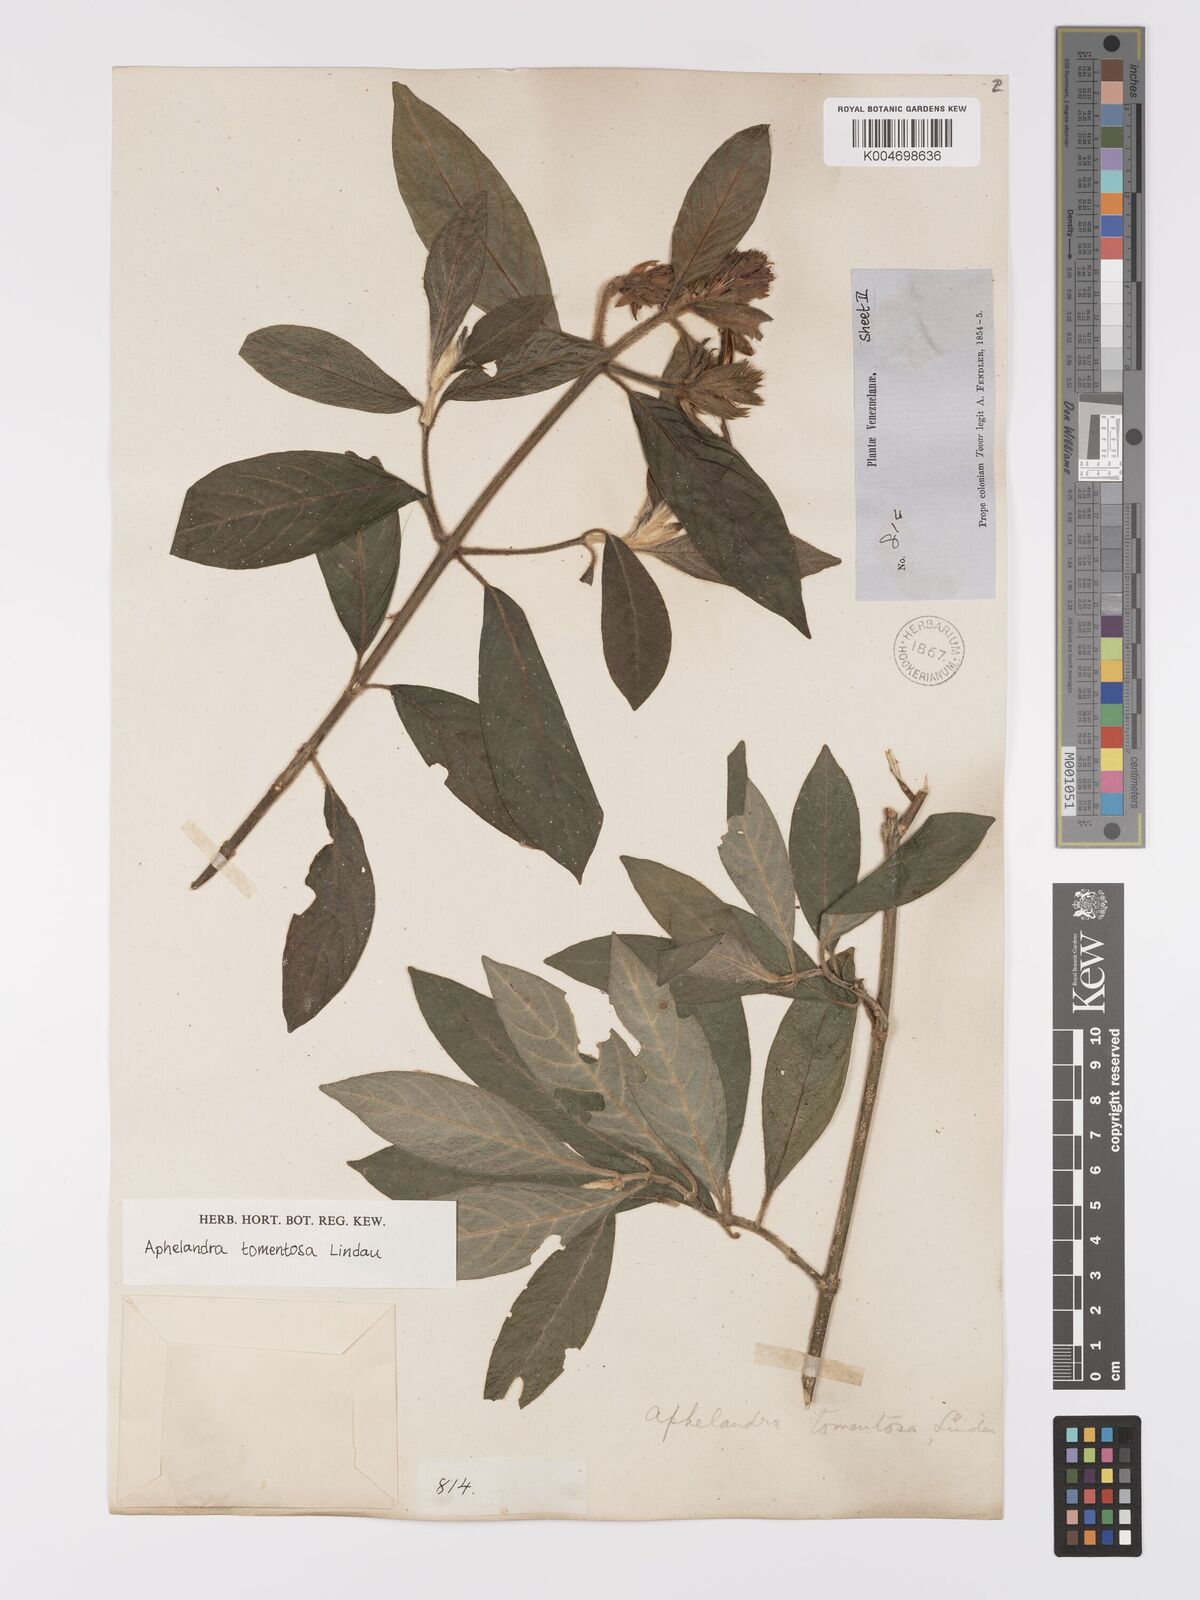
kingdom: Plantae
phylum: Tracheophyta
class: Magnoliopsida
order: Lamiales
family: Acanthaceae
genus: Aphelandra
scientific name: Aphelandra tomentosa
